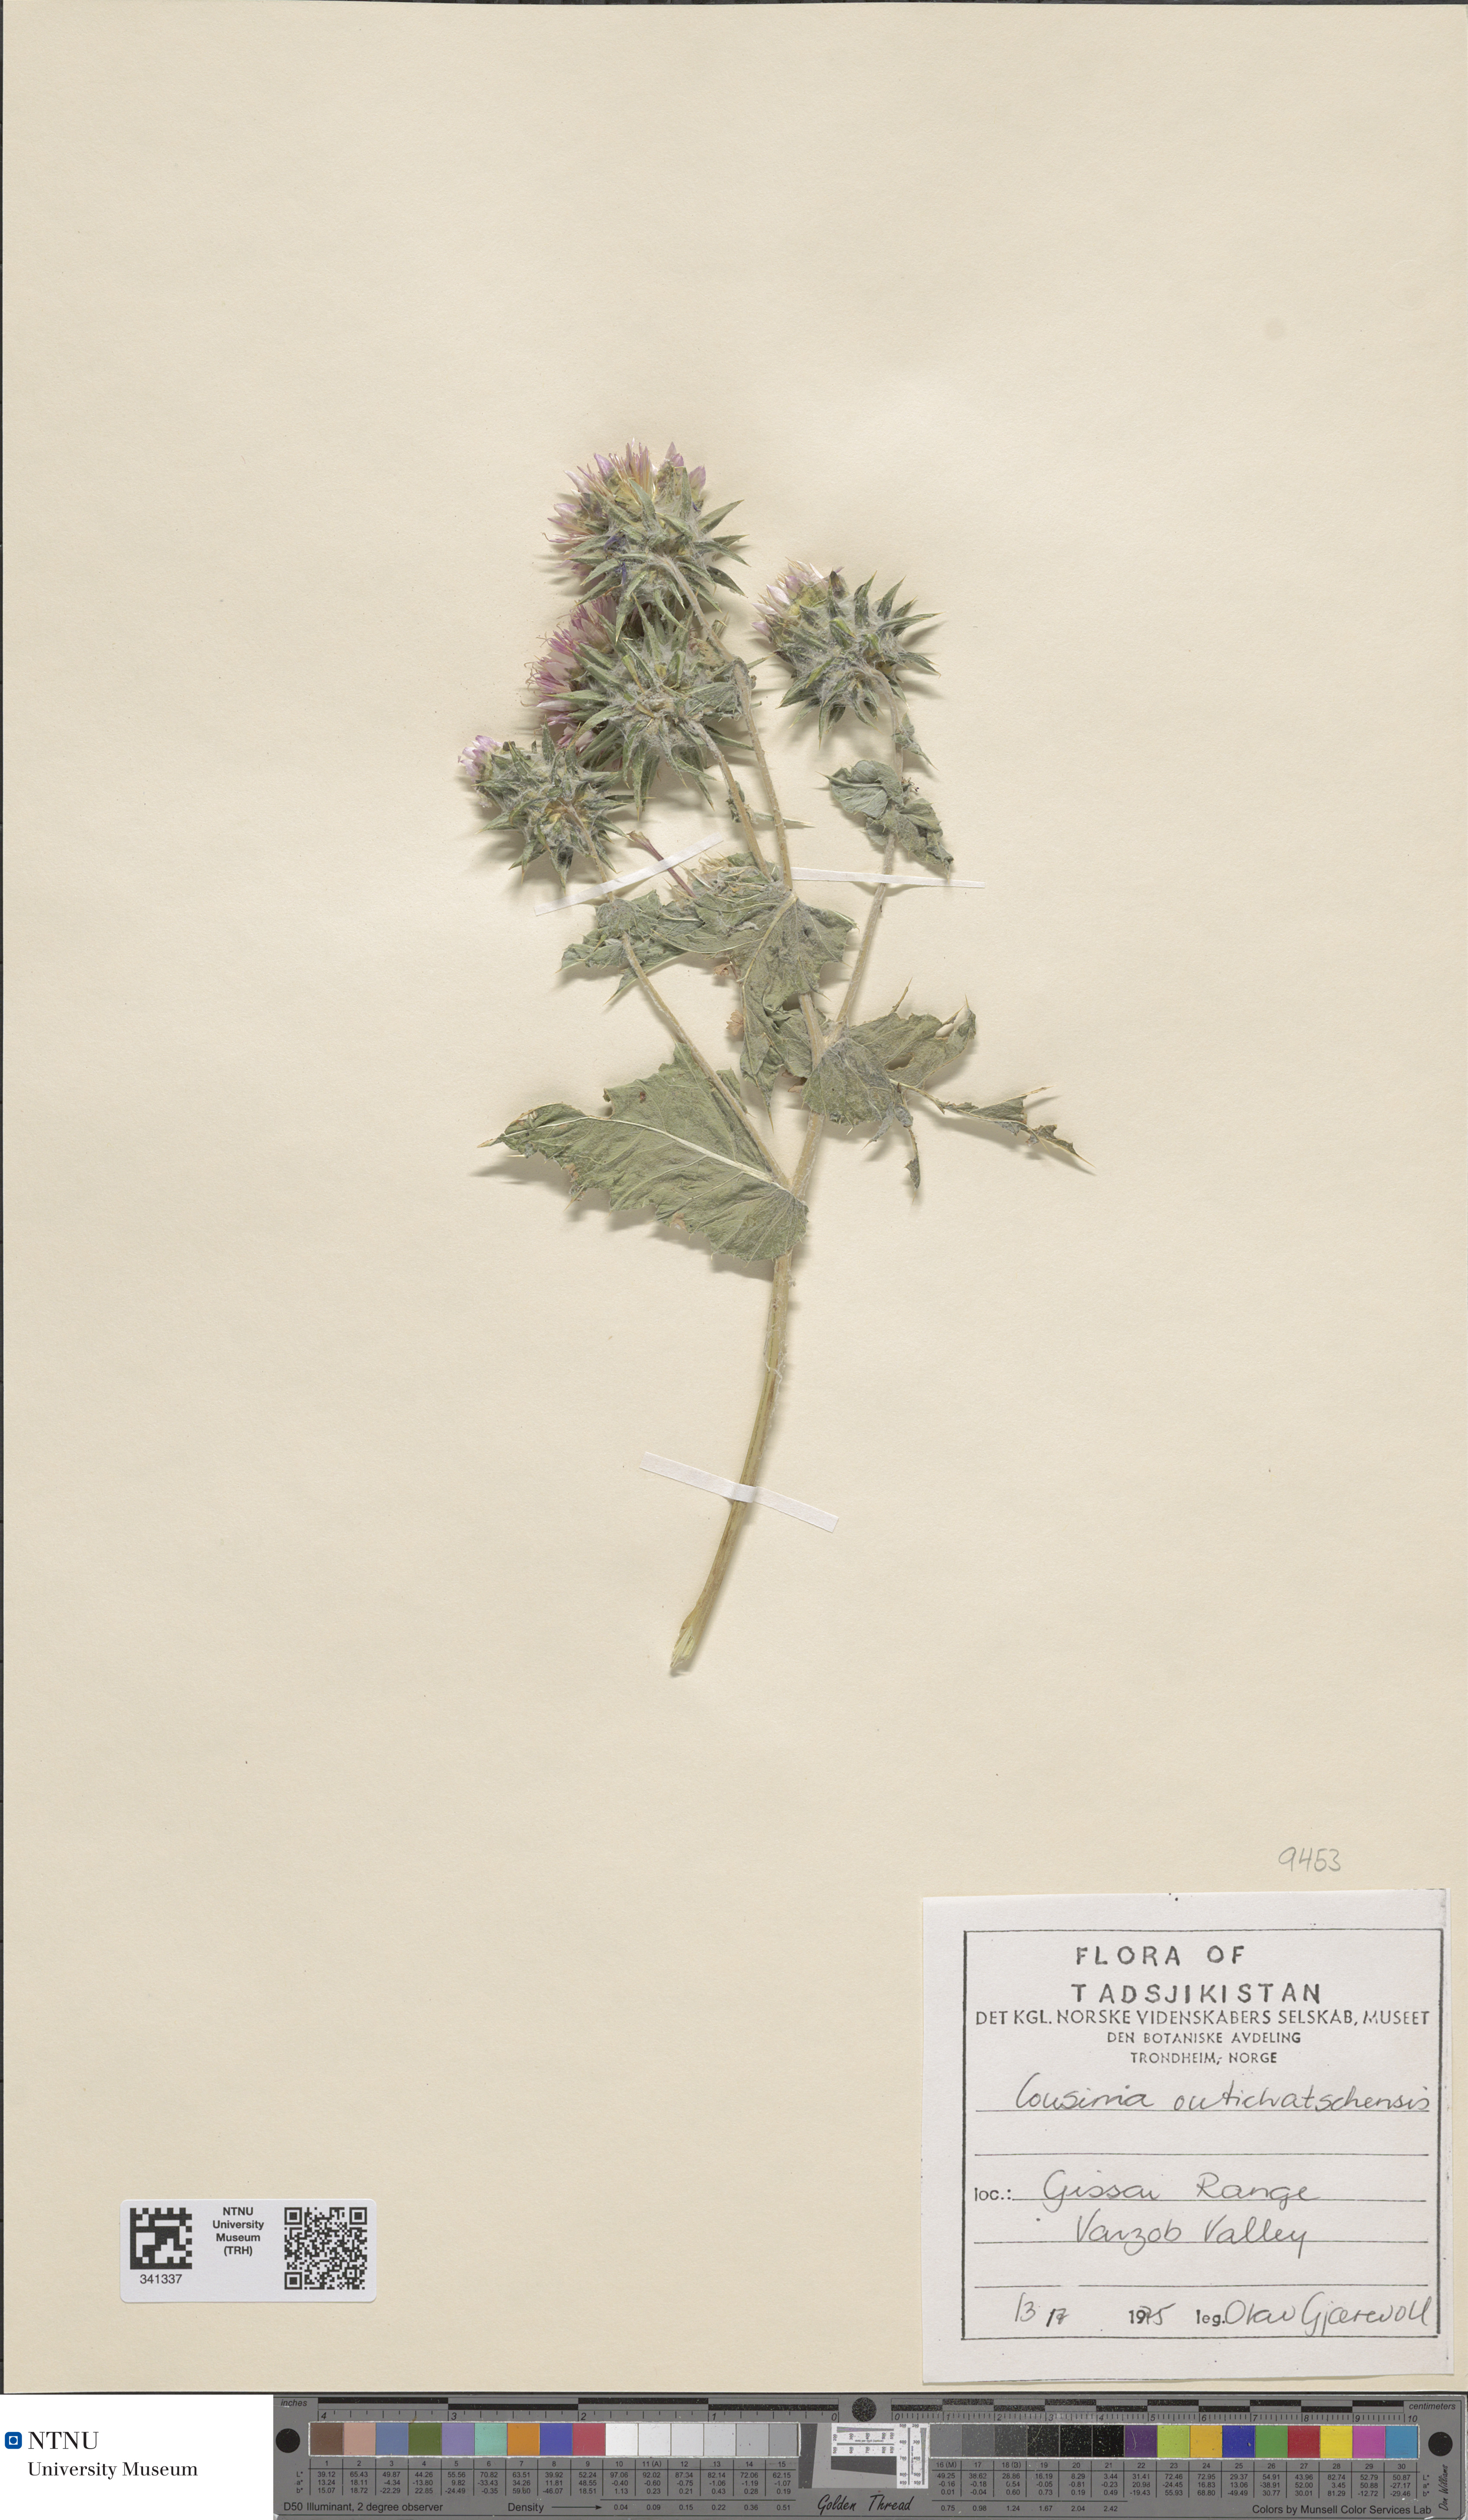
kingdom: Plantae
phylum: Tracheophyta
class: Magnoliopsida
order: Asterales
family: Asteraceae
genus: Cousinia
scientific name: Cousinia outichaschensis
